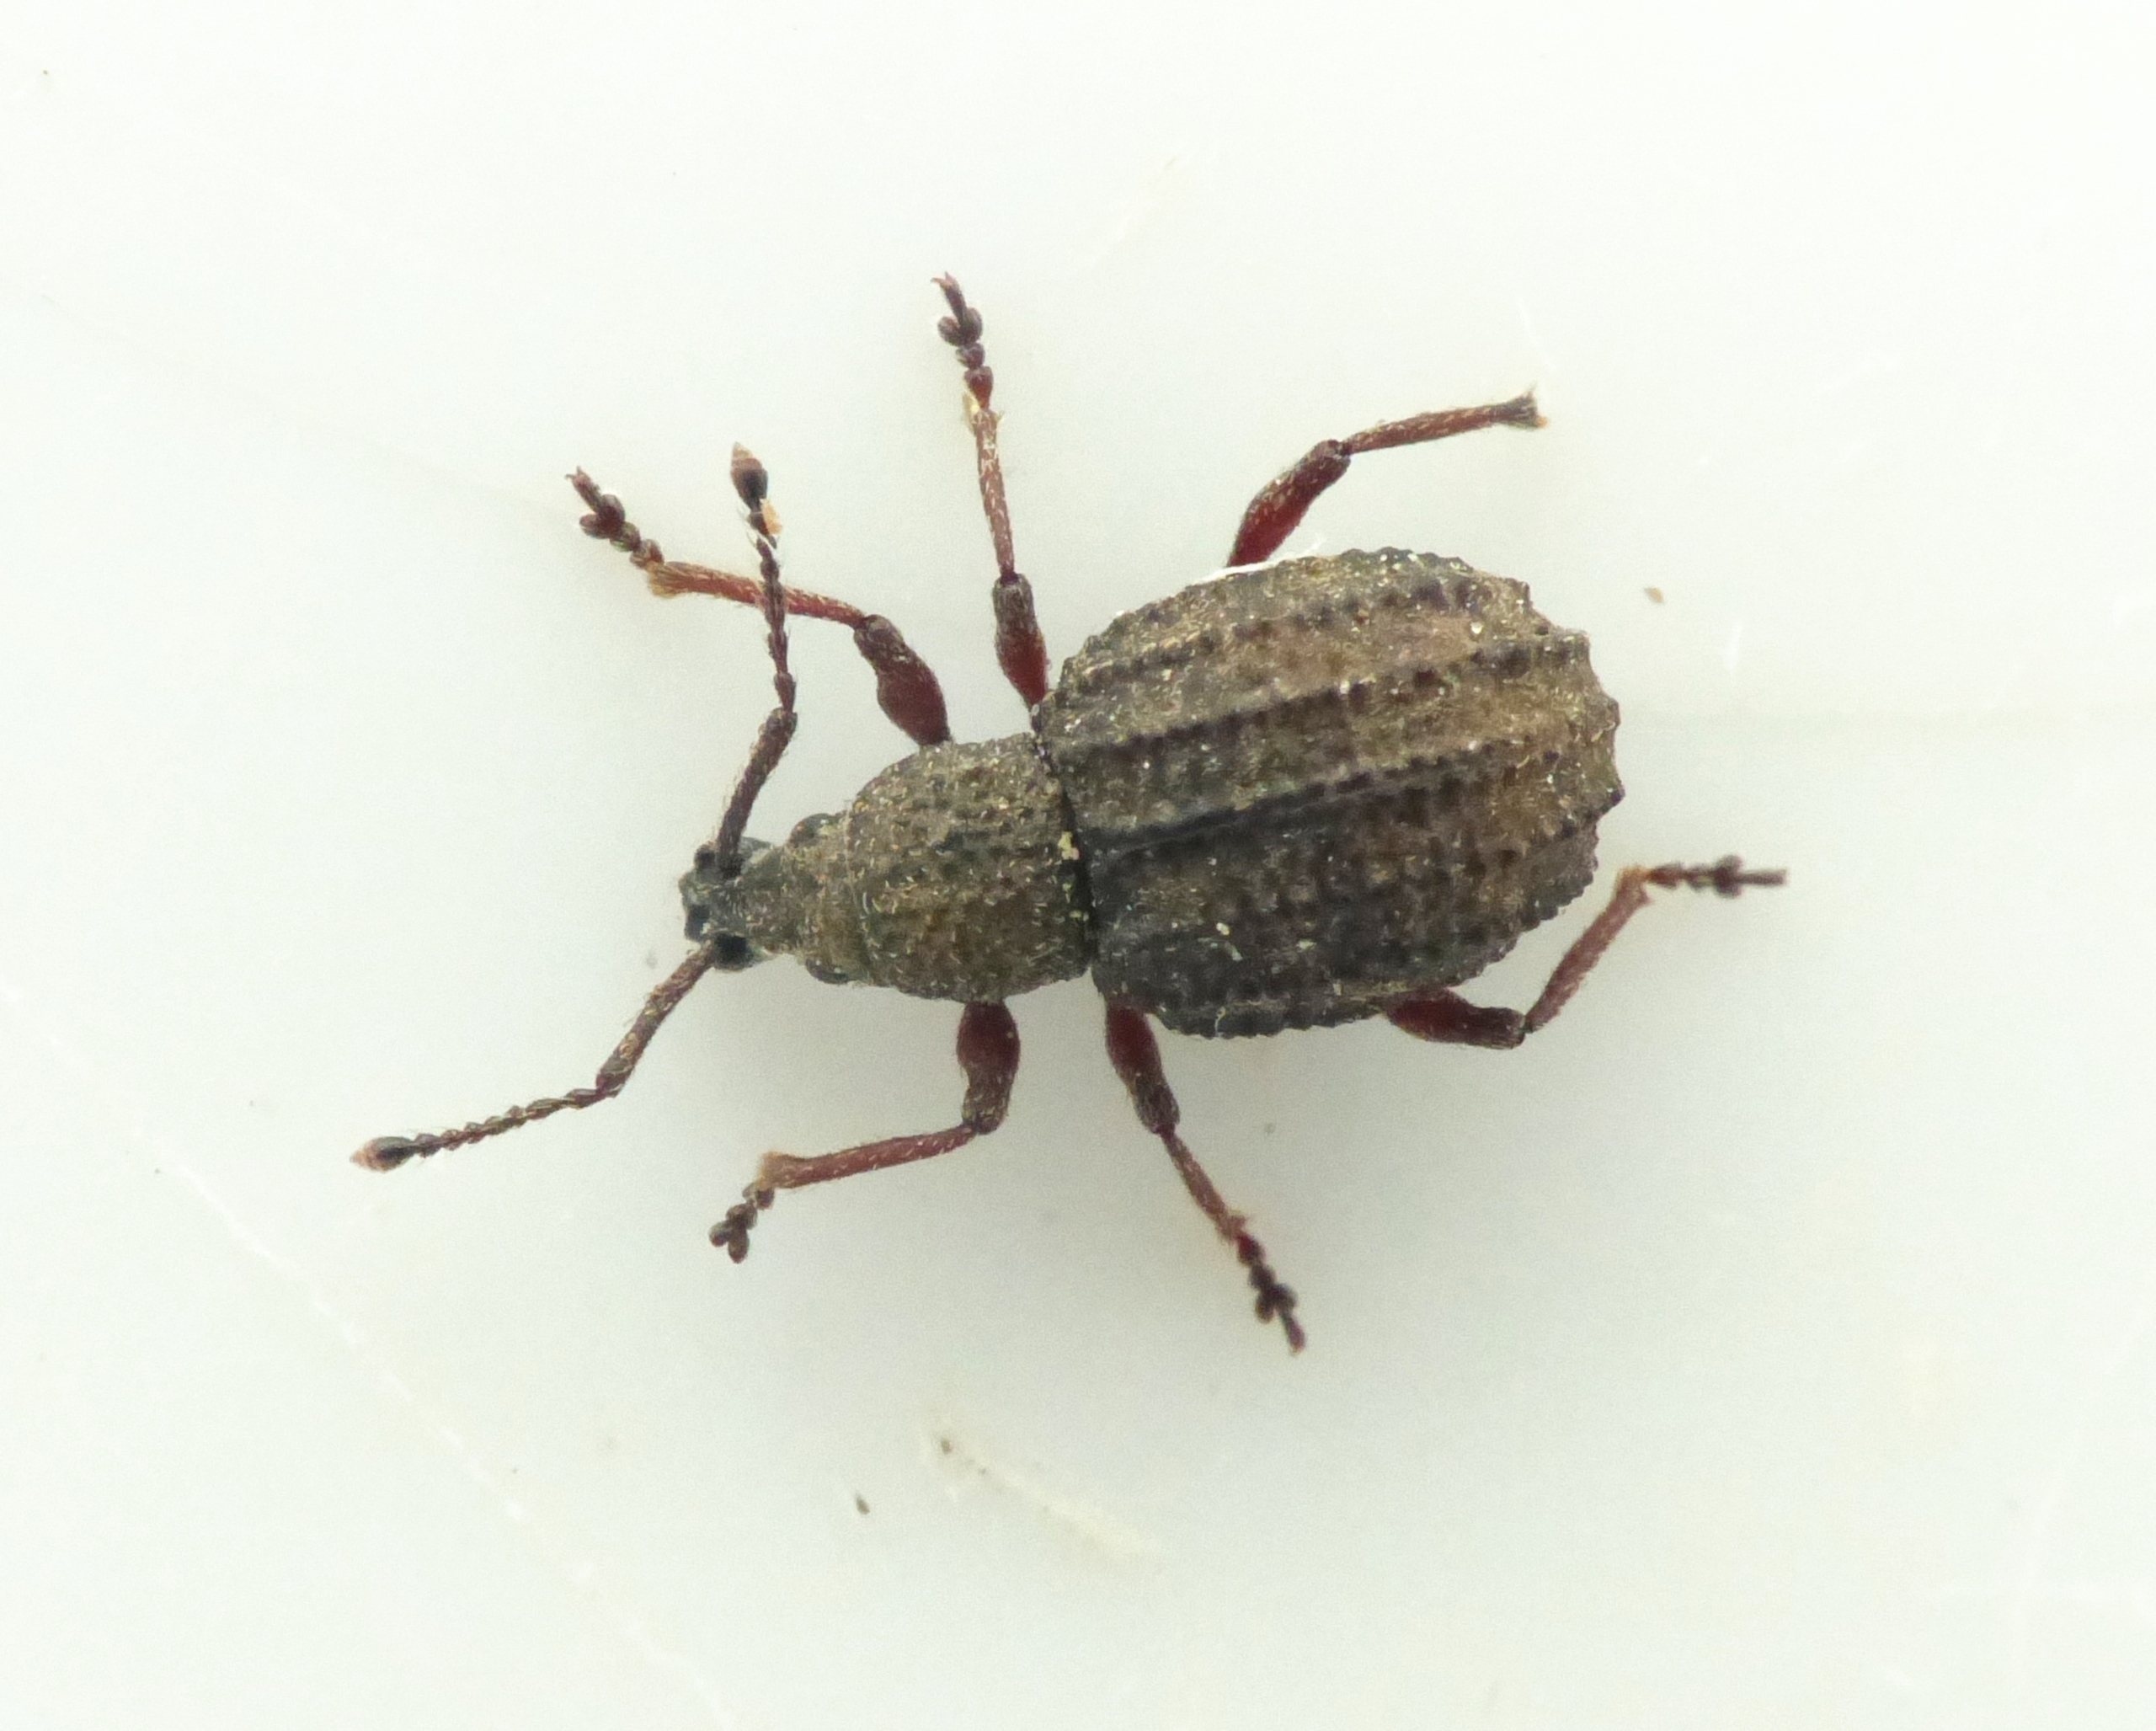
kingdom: Animalia
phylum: Arthropoda
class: Insecta
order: Coleoptera
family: Curculionidae
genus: Otiorhynchus
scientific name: Otiorhynchus porcatus
